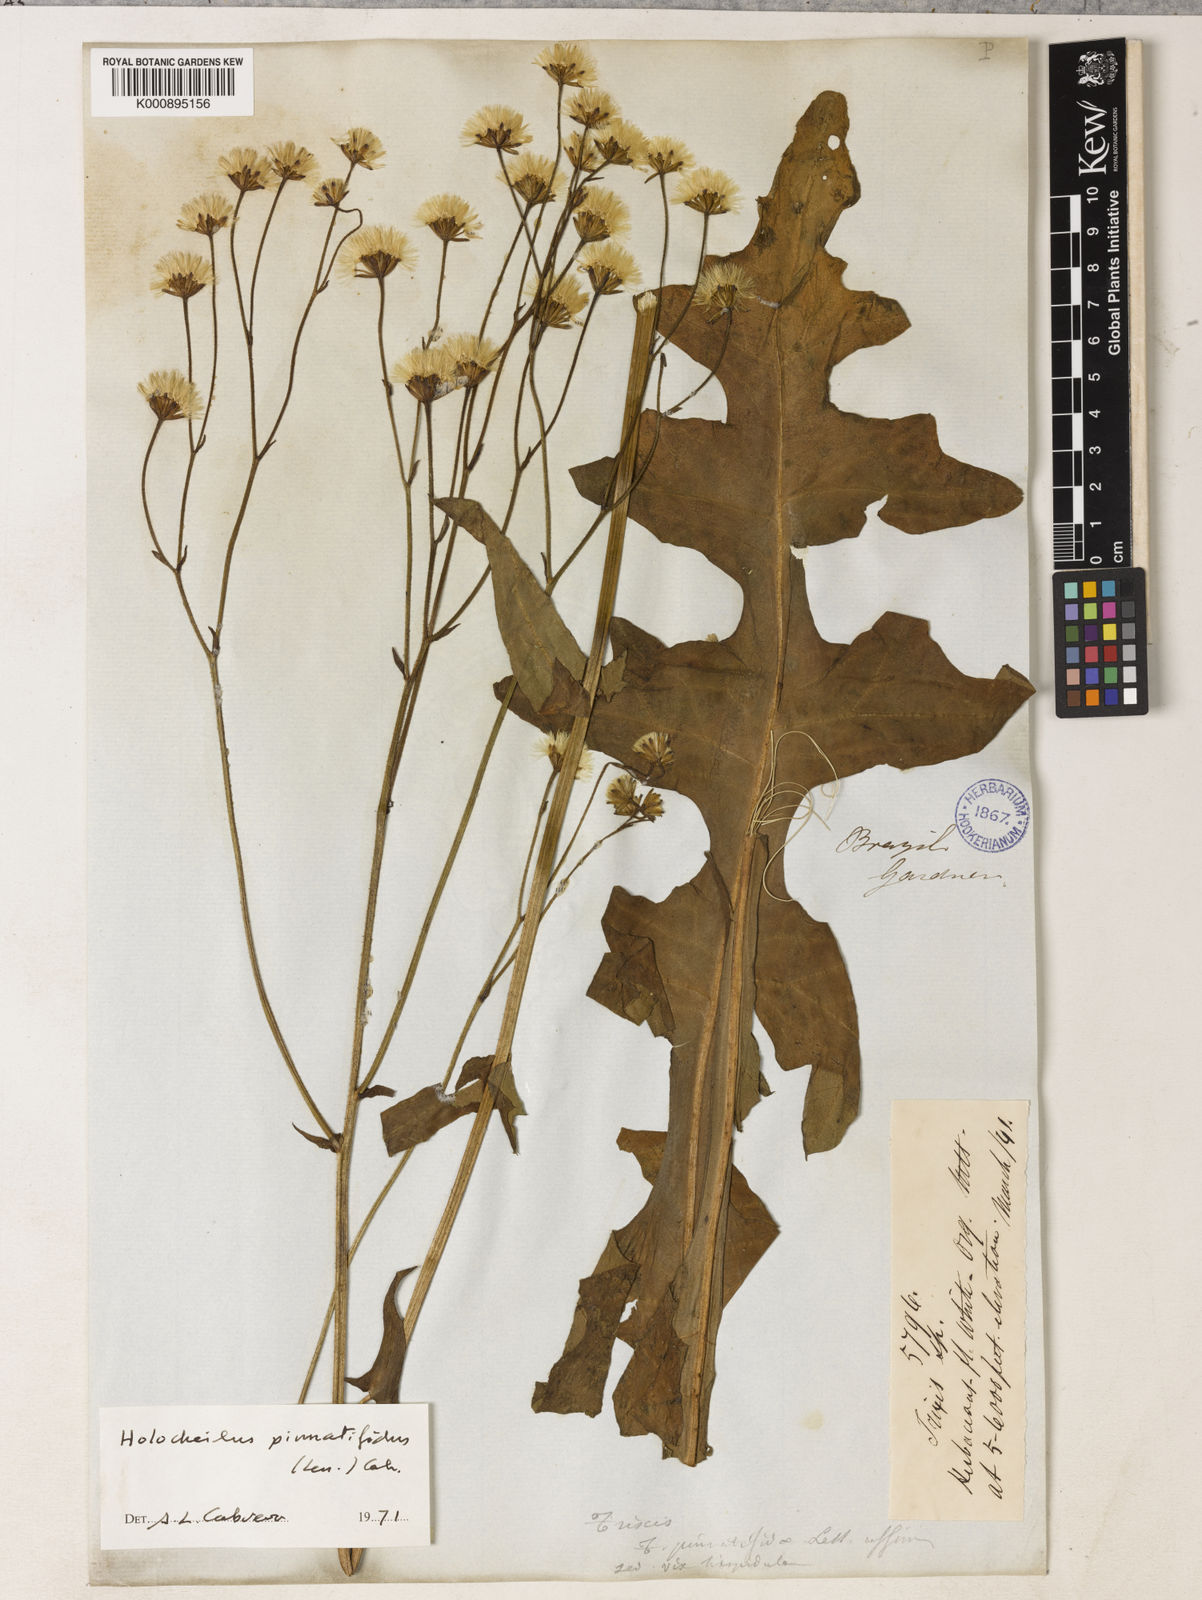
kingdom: Plantae
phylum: Tracheophyta
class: Magnoliopsida
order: Asterales
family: Asteraceae
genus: Holocheilus
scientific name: Holocheilus pinnatifidus
